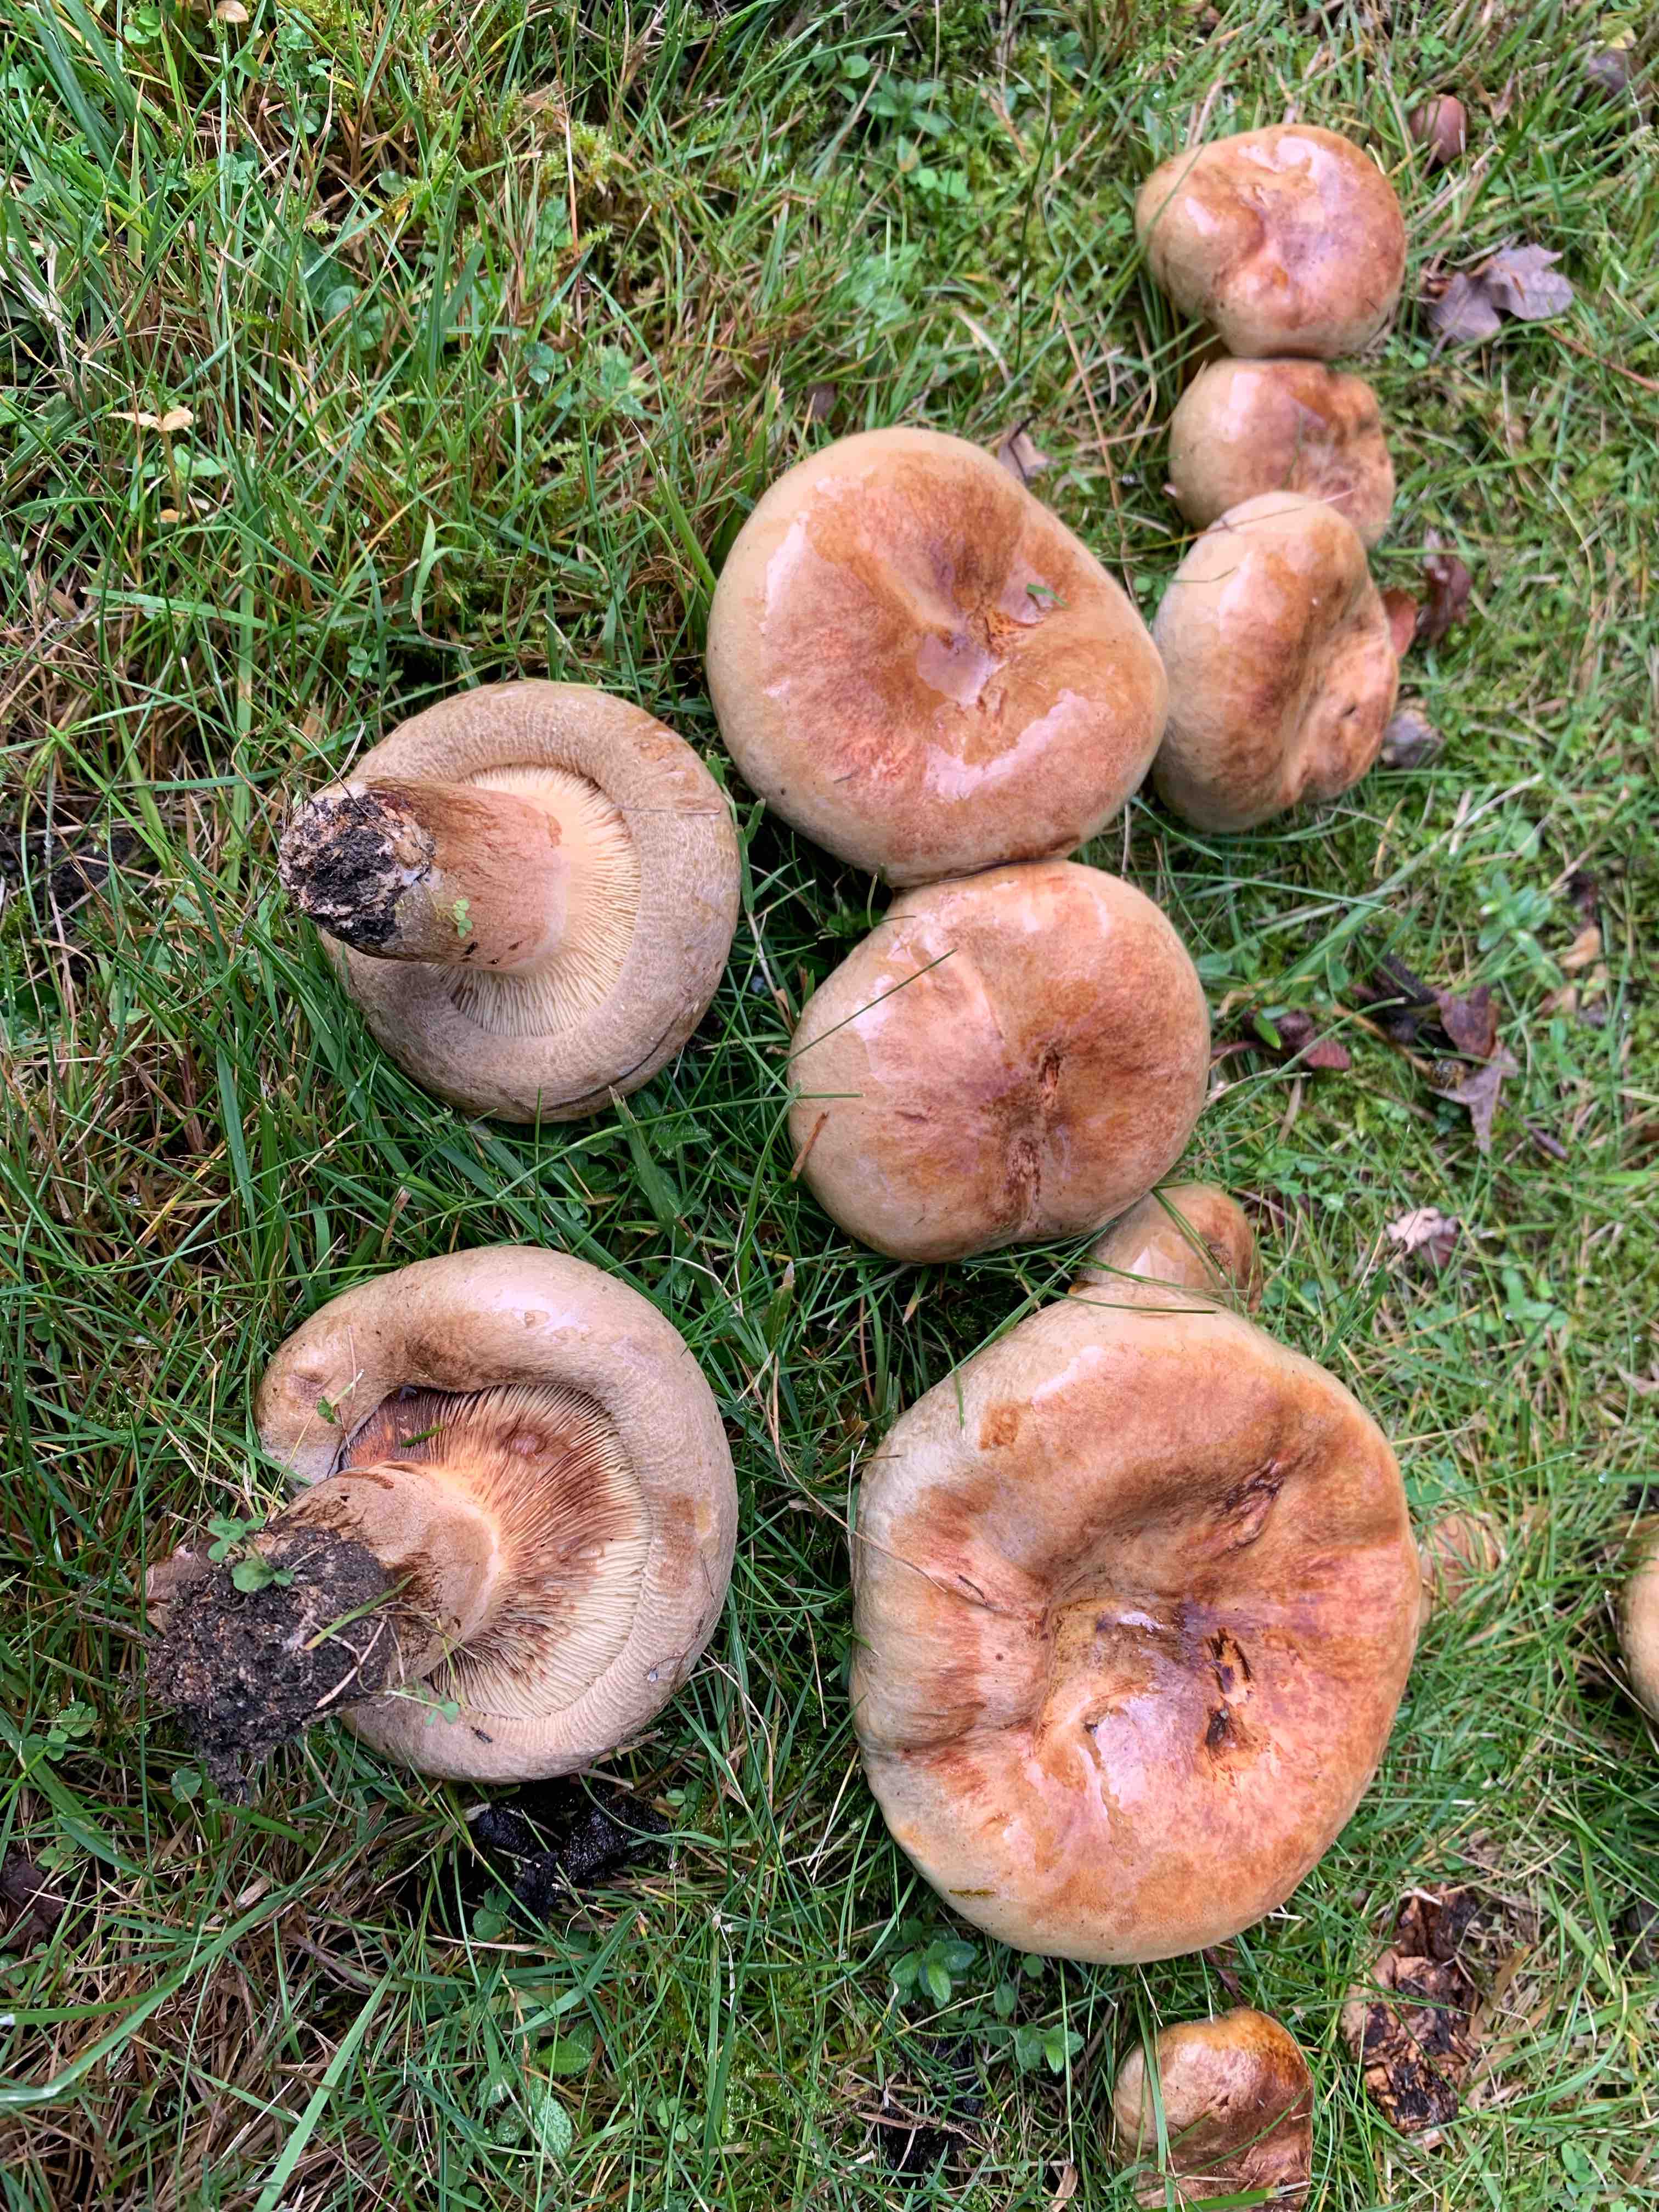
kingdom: Fungi
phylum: Basidiomycota
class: Agaricomycetes
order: Boletales
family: Paxillaceae
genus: Paxillus
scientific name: Paxillus obscurisporus
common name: mahognisporet netbladhat
